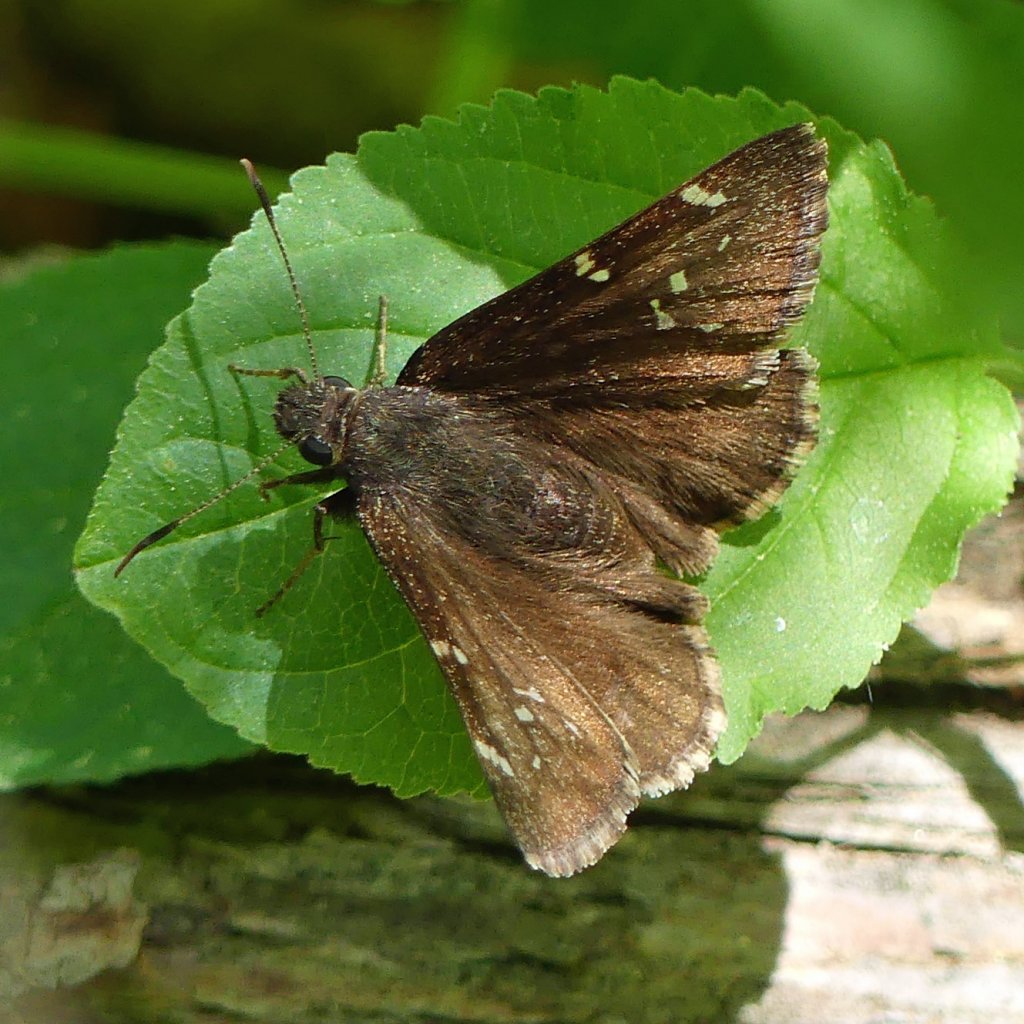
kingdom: Animalia
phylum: Arthropoda
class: Insecta
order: Lepidoptera
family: Hesperiidae
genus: Autochton
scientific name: Autochton
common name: Northern Cloudywing
